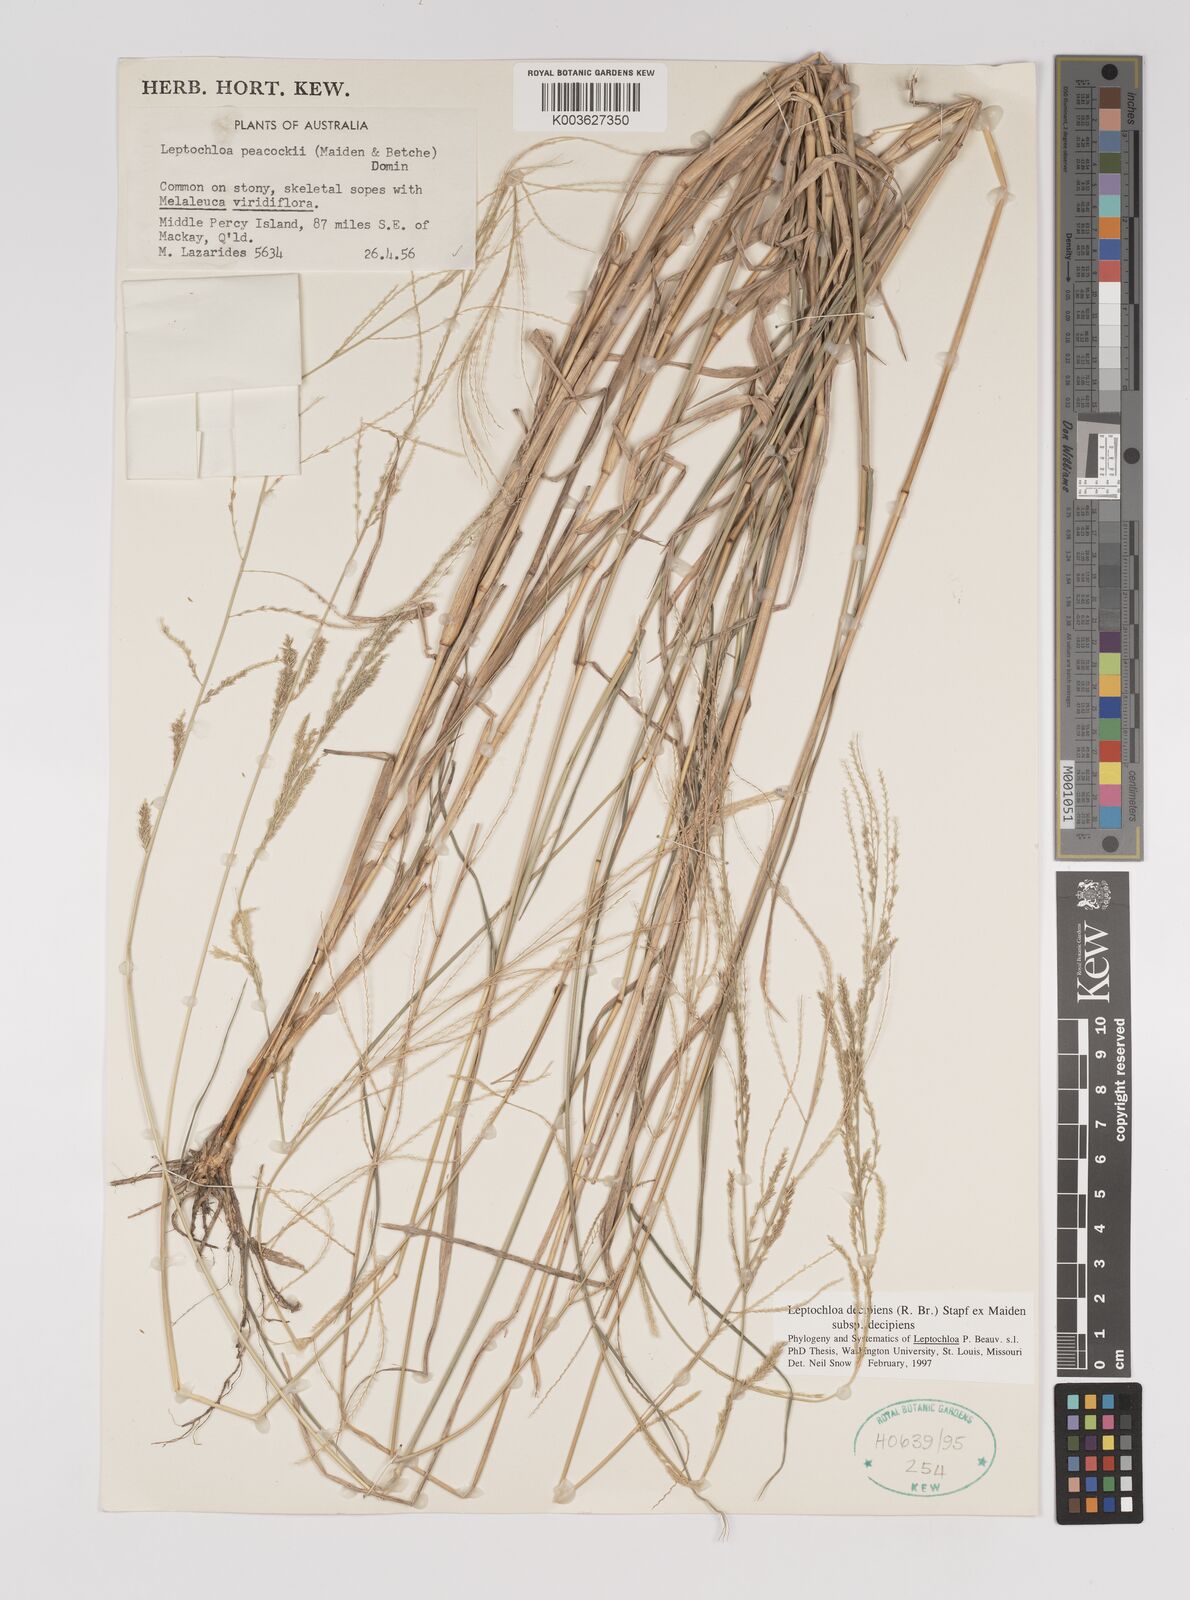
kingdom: Plantae
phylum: Tracheophyta
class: Liliopsida
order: Poales
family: Poaceae
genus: Leptochloa
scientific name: Leptochloa decipiens
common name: Australian sprangletop
